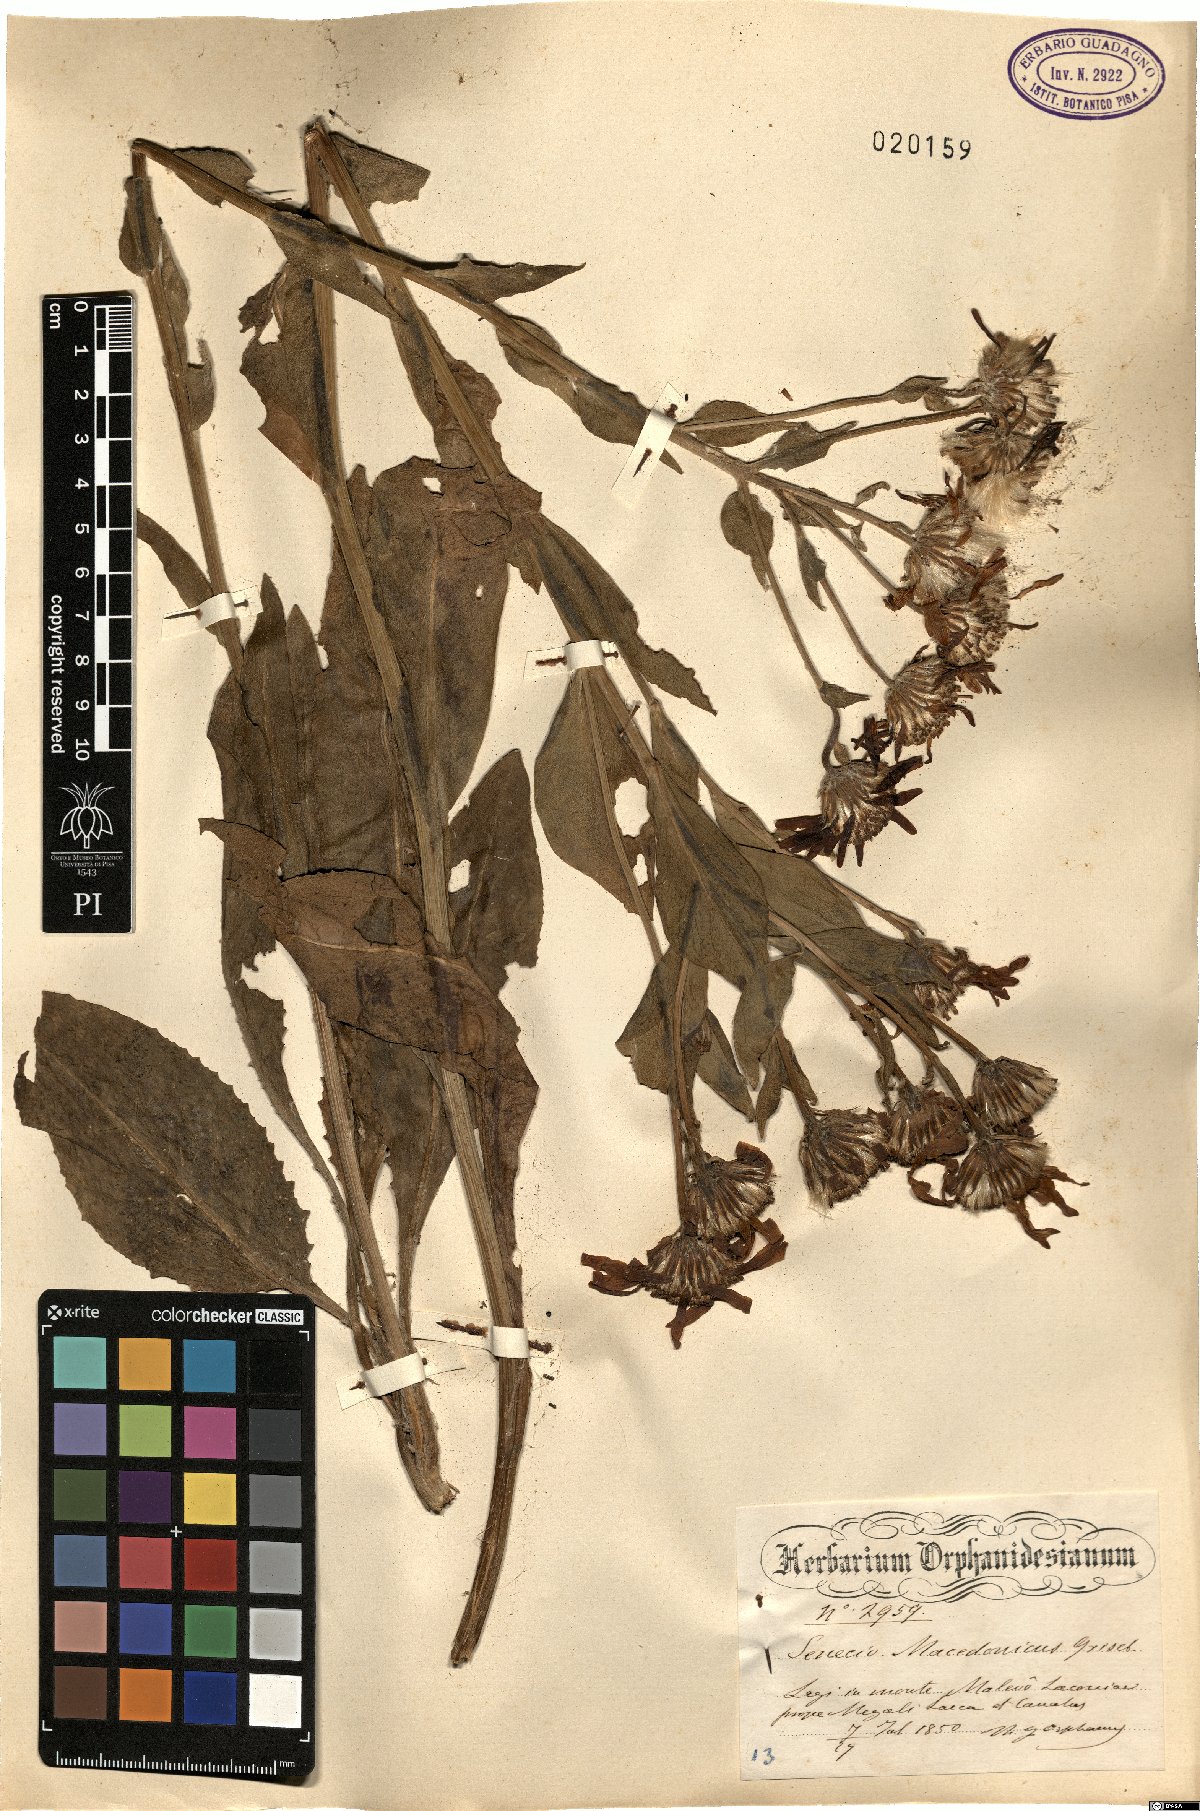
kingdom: Plantae
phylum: Tracheophyta
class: Magnoliopsida
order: Asterales
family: Asteraceae
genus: Senecio
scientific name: Senecio macedonicus
